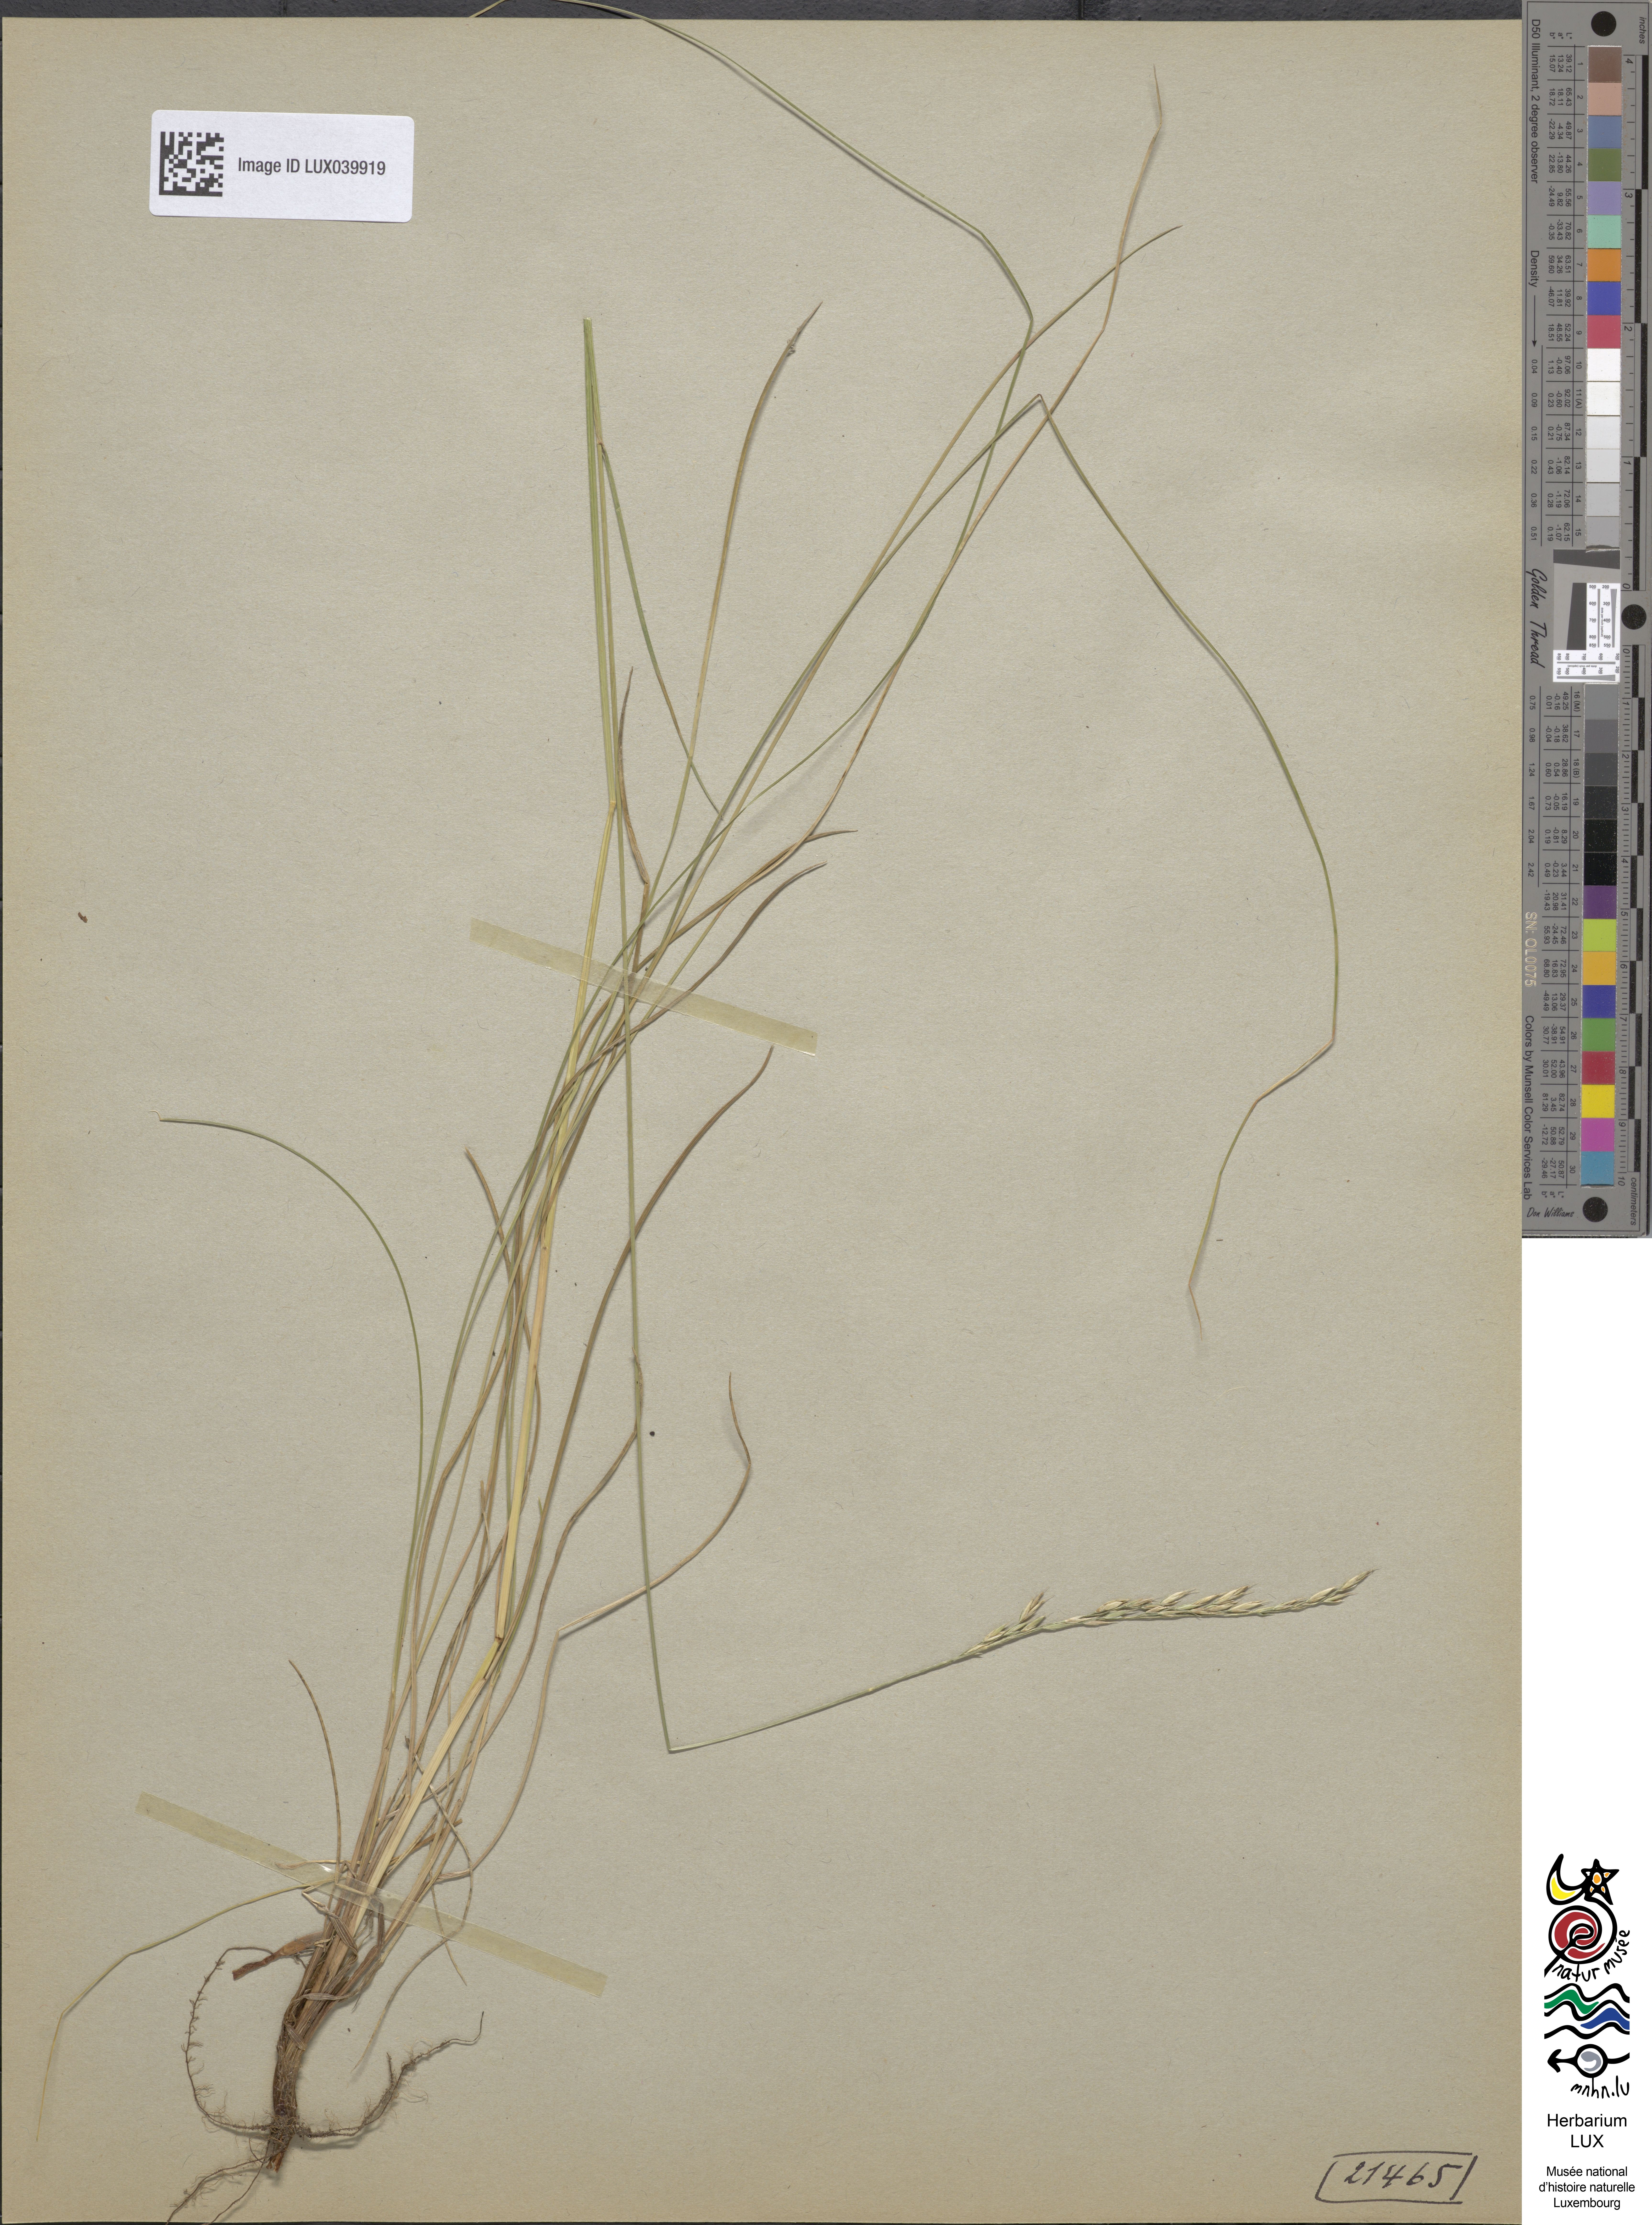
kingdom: Plantae
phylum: Tracheophyta
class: Liliopsida
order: Poales
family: Poaceae
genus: Festuca
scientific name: Festuca rubra
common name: Red fescue
